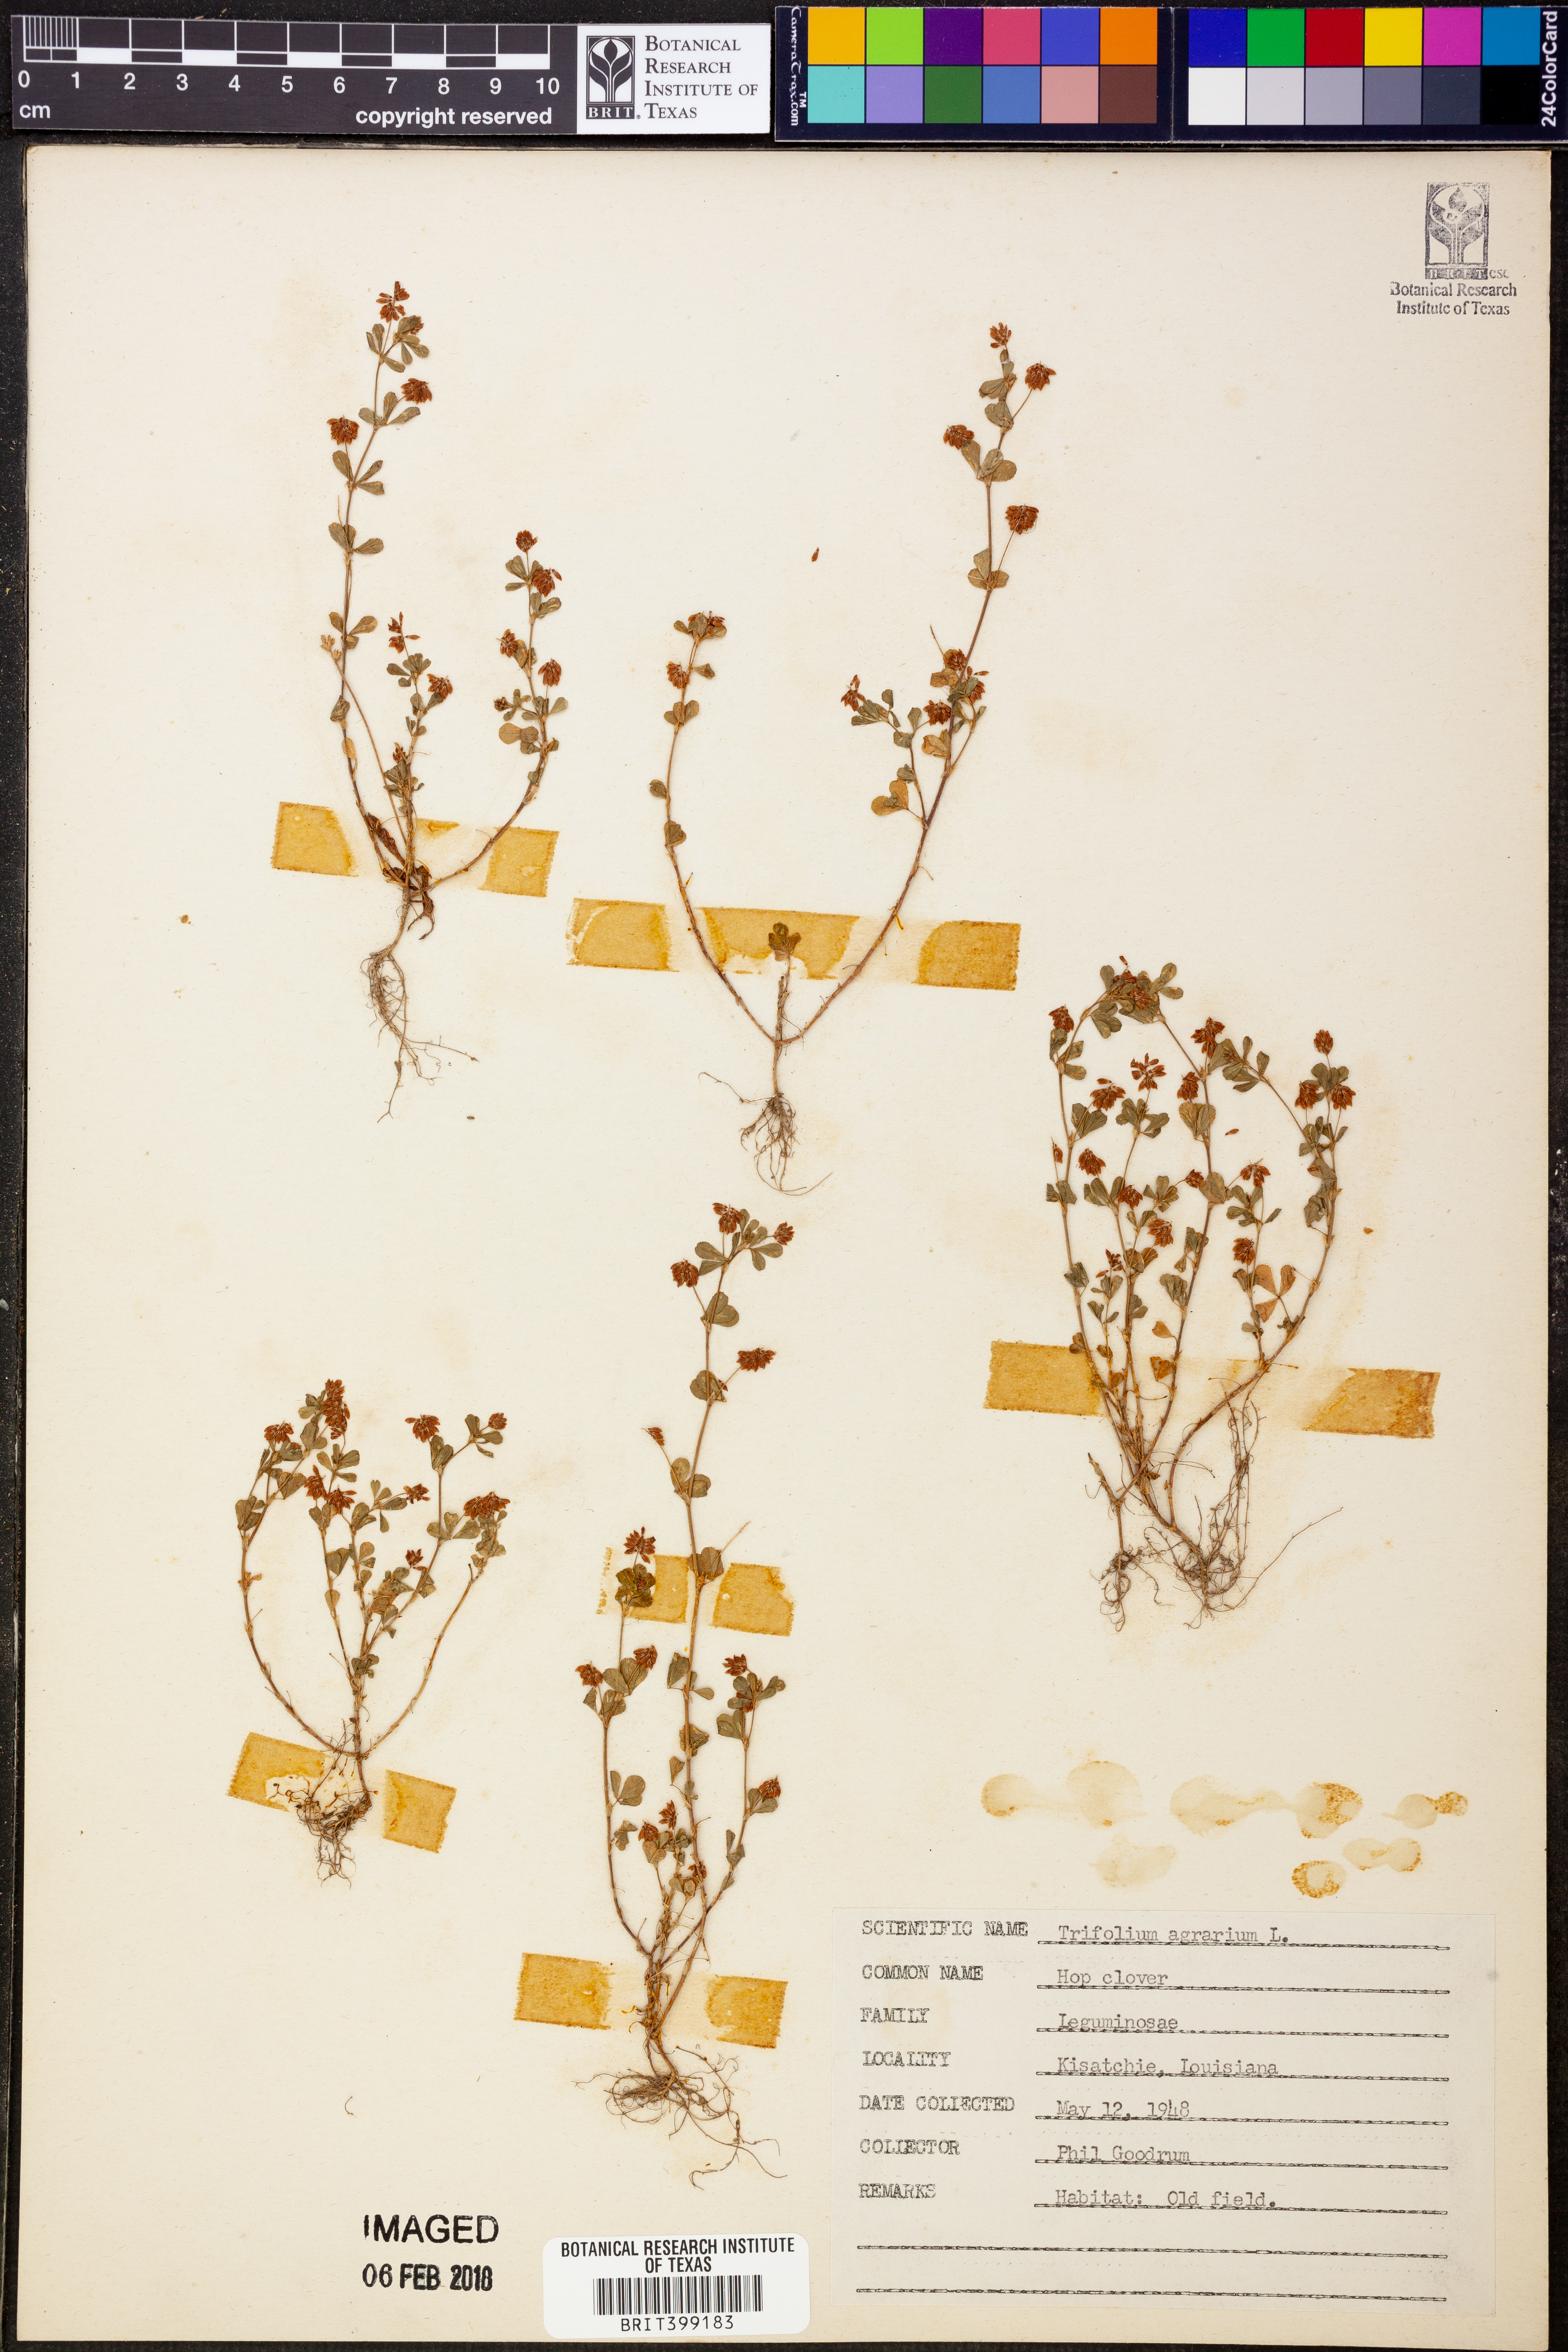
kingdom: Plantae
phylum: Tracheophyta
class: Magnoliopsida
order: Fabales
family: Fabaceae
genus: Trifolium
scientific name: Trifolium agrarium
